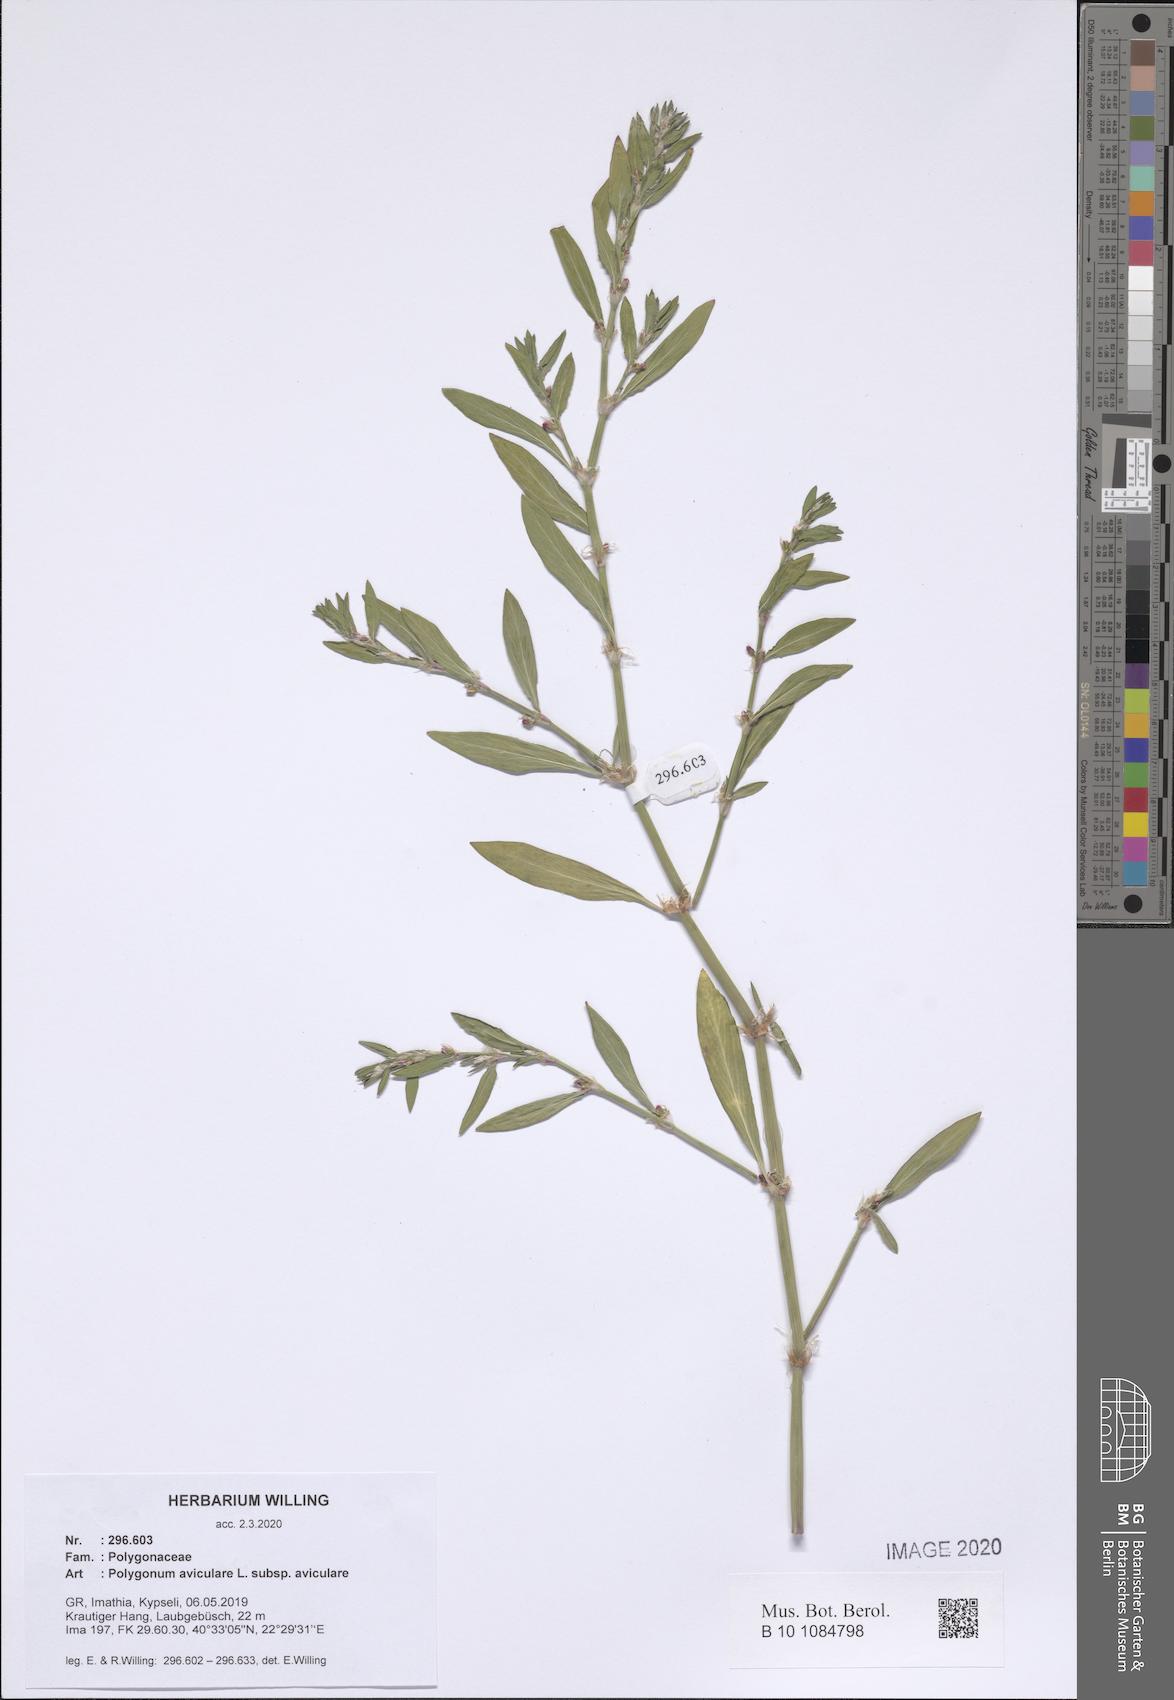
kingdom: Plantae
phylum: Tracheophyta
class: Magnoliopsida
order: Caryophyllales
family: Polygonaceae
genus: Polygonum
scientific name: Polygonum aviculare
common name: Prostrate knotweed
